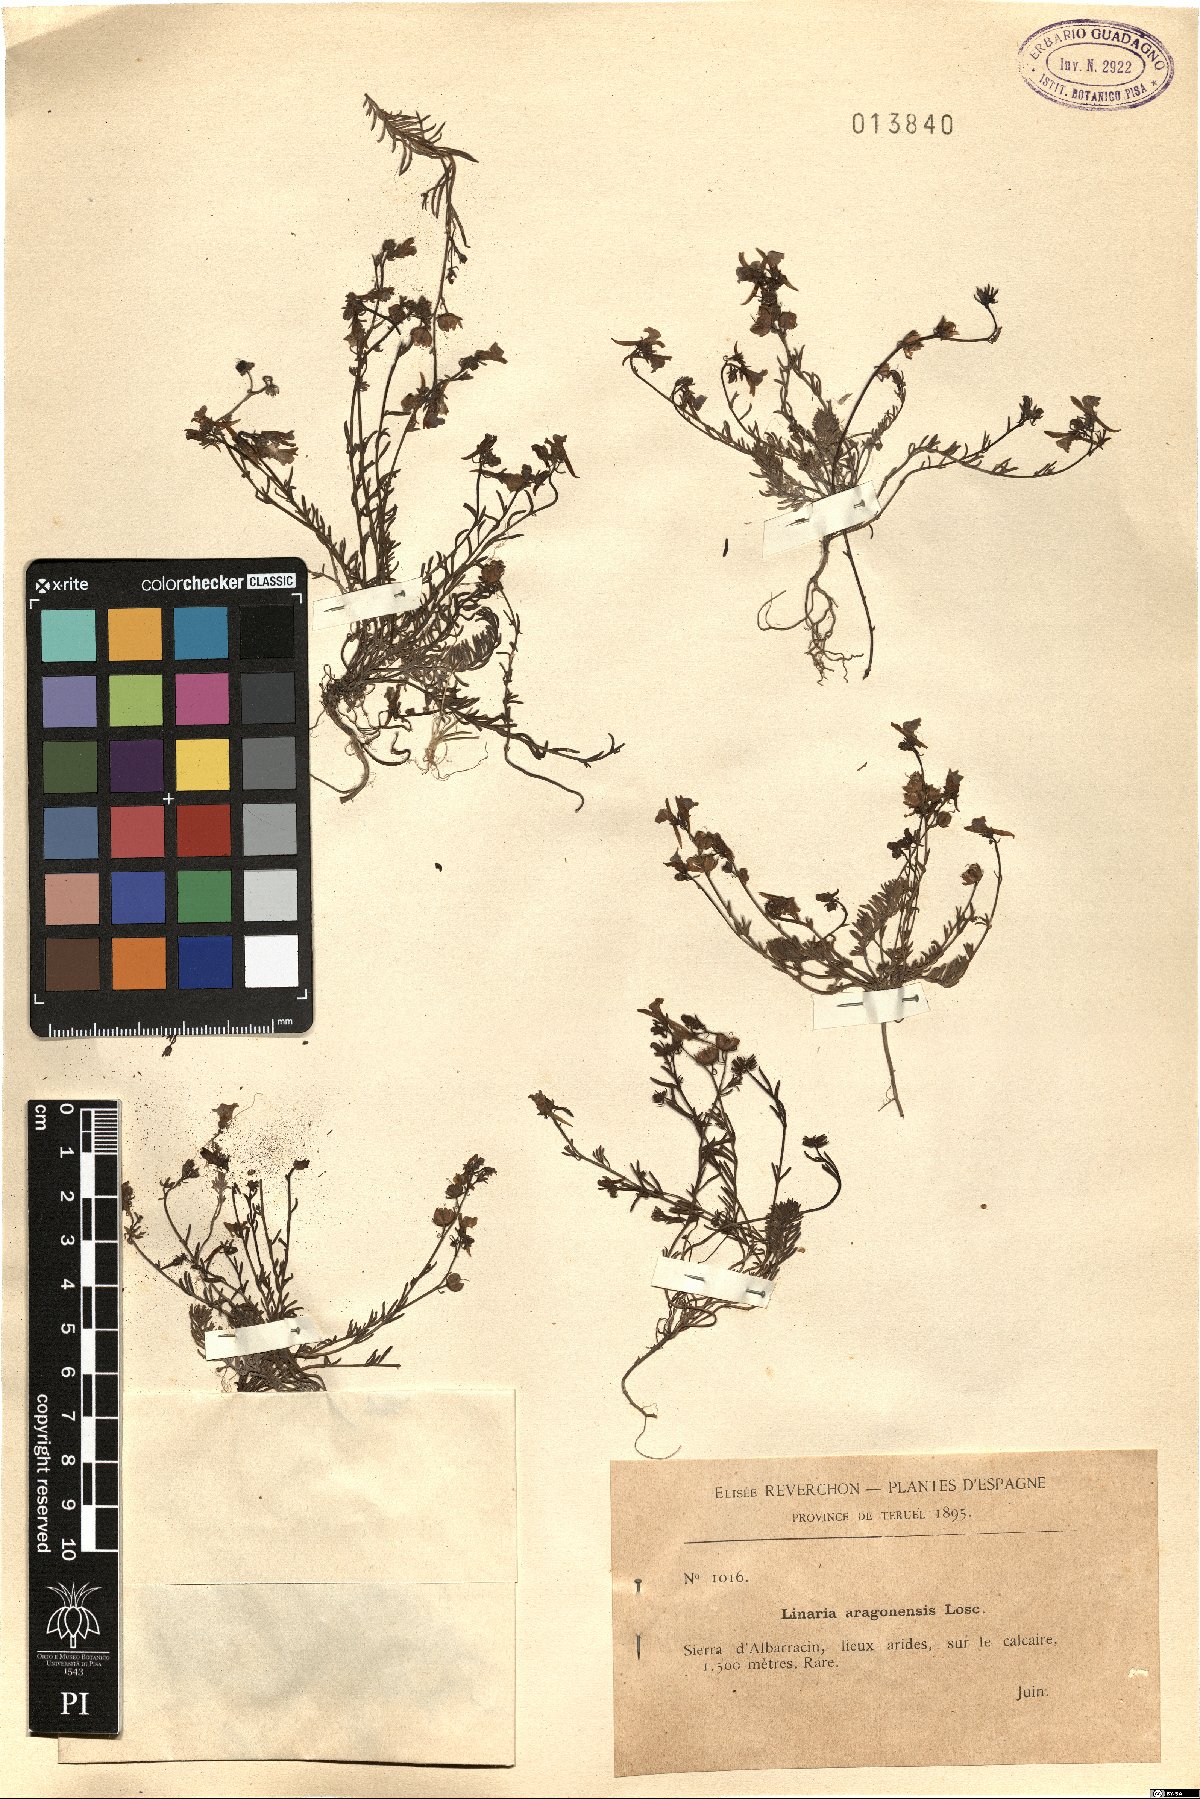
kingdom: Plantae
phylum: Tracheophyta
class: Magnoliopsida
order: Lamiales
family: Plantaginaceae
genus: Linaria
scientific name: Linaria oblongifolia
